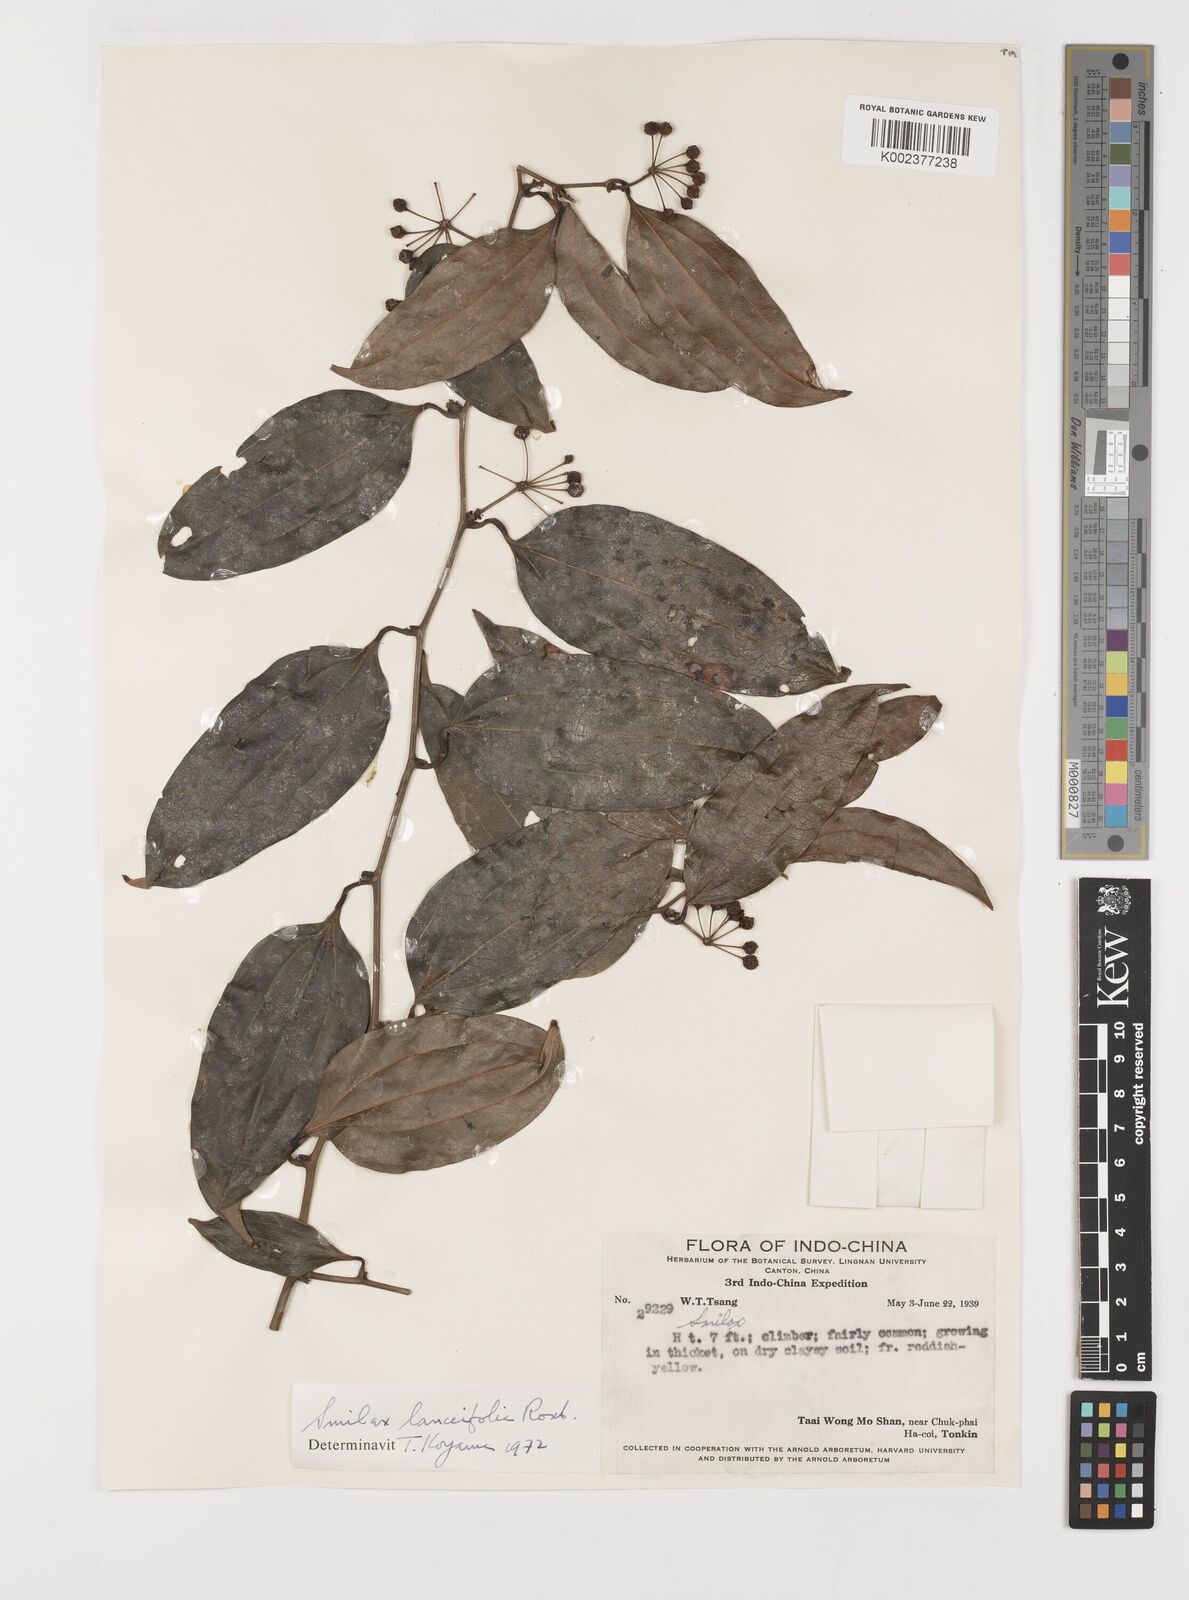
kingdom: Plantae
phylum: Tracheophyta
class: Liliopsida
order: Liliales
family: Smilacaceae
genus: Smilax
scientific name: Smilax lanceifolia
